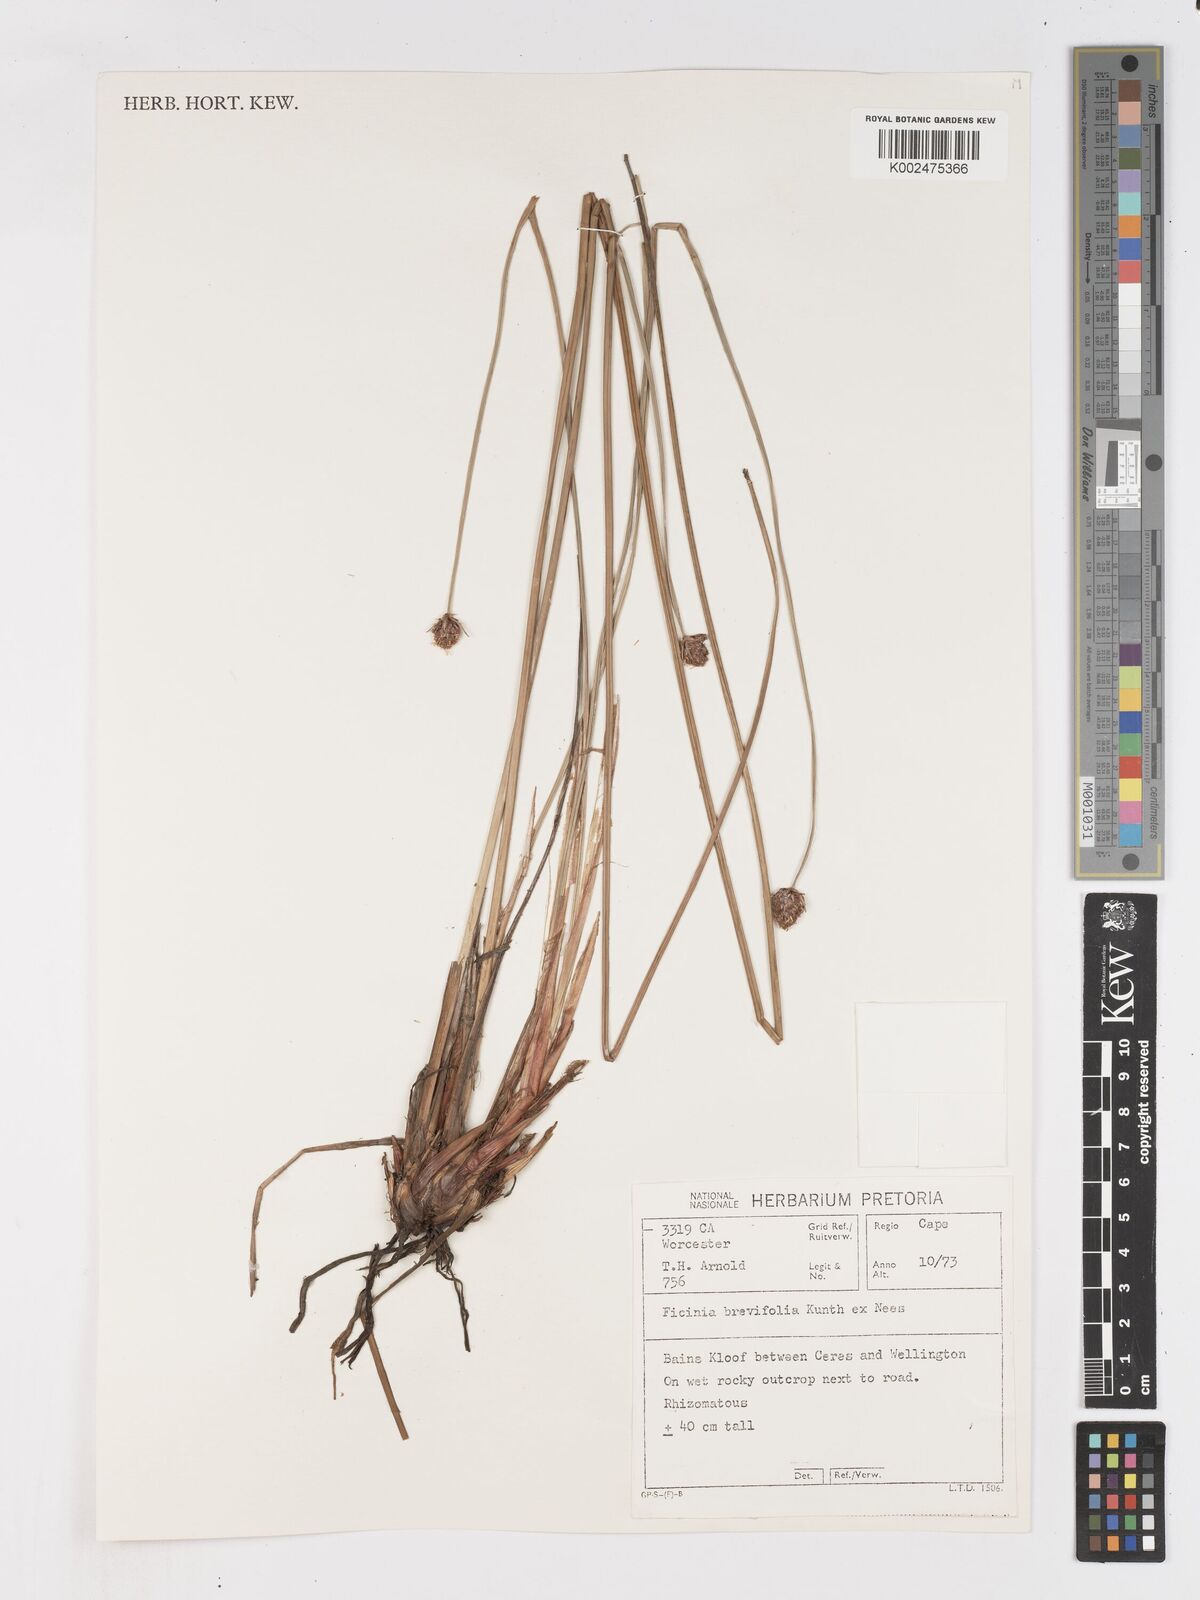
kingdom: Plantae
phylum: Tracheophyta
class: Liliopsida
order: Poales
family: Cyperaceae
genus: Ficinia
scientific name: Ficinia brevifolia
